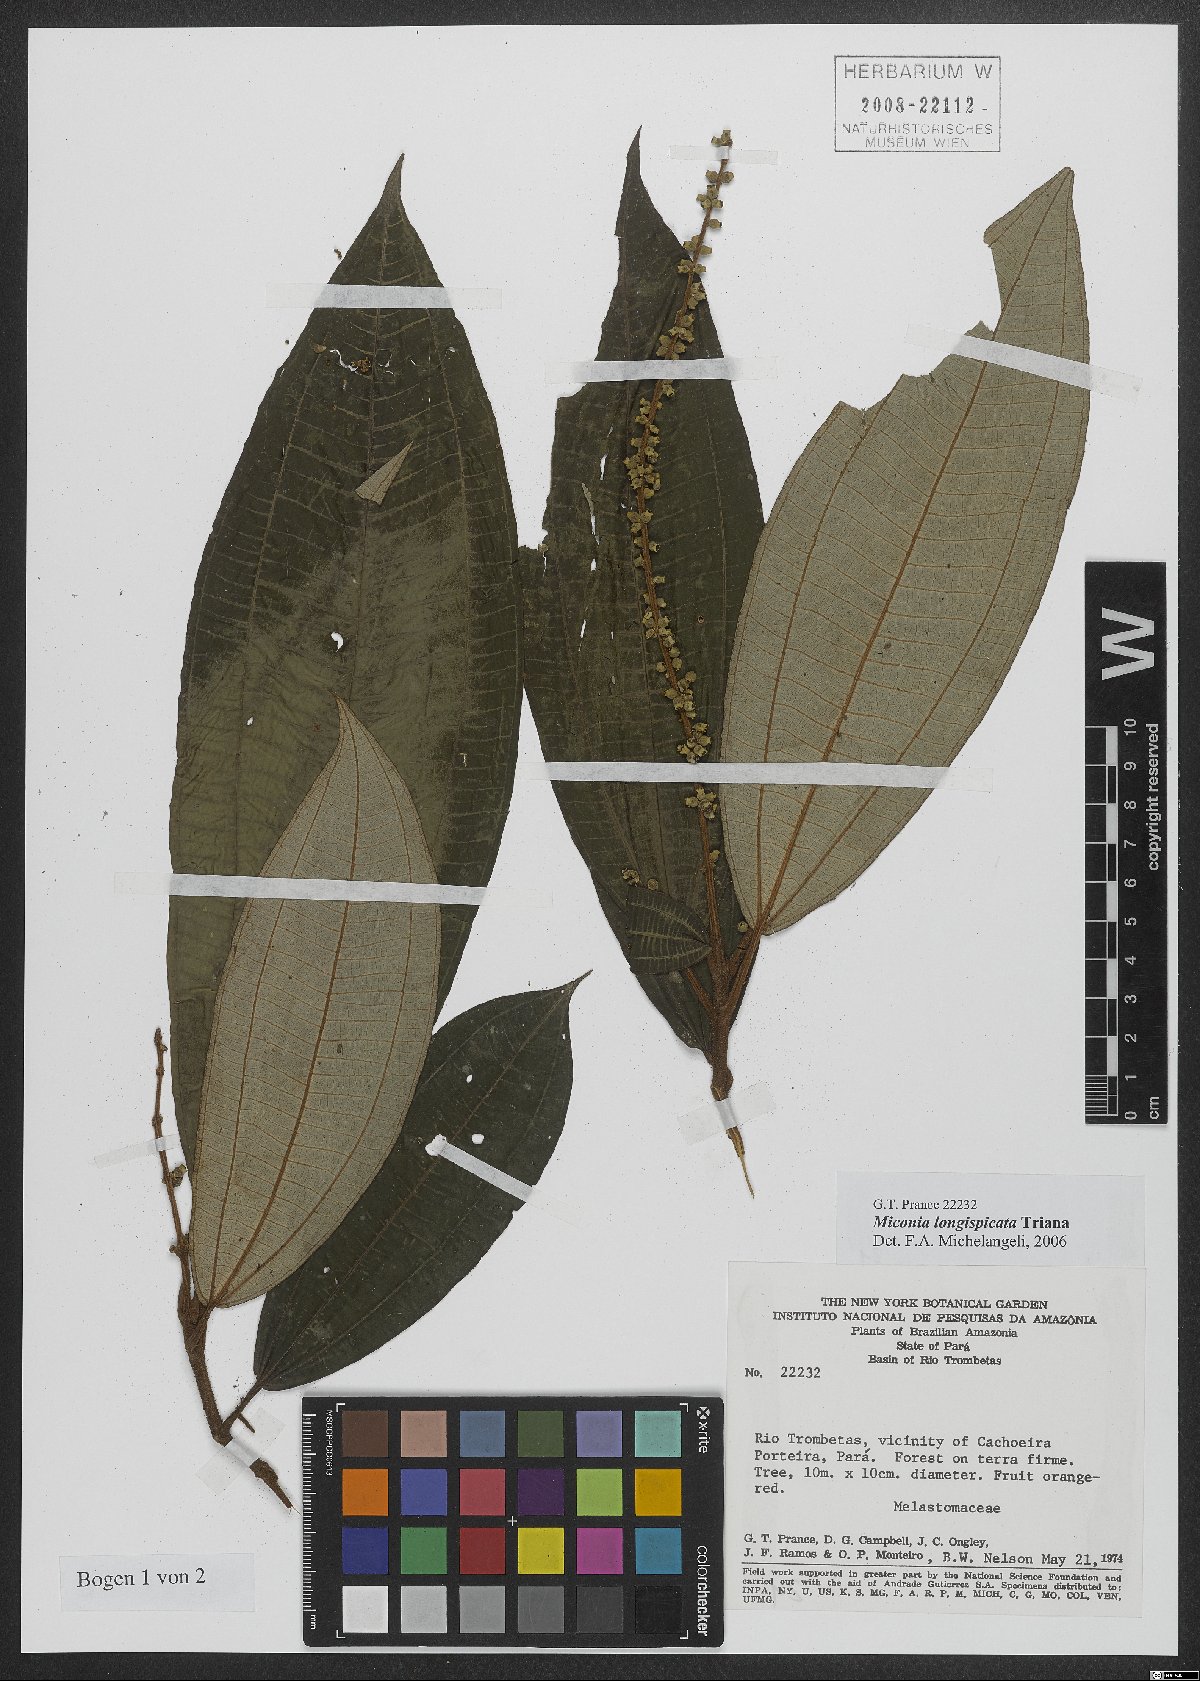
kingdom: Plantae
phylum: Tracheophyta
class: Magnoliopsida
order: Myrtales
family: Melastomataceae
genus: Miconia
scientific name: Miconia longispicata
